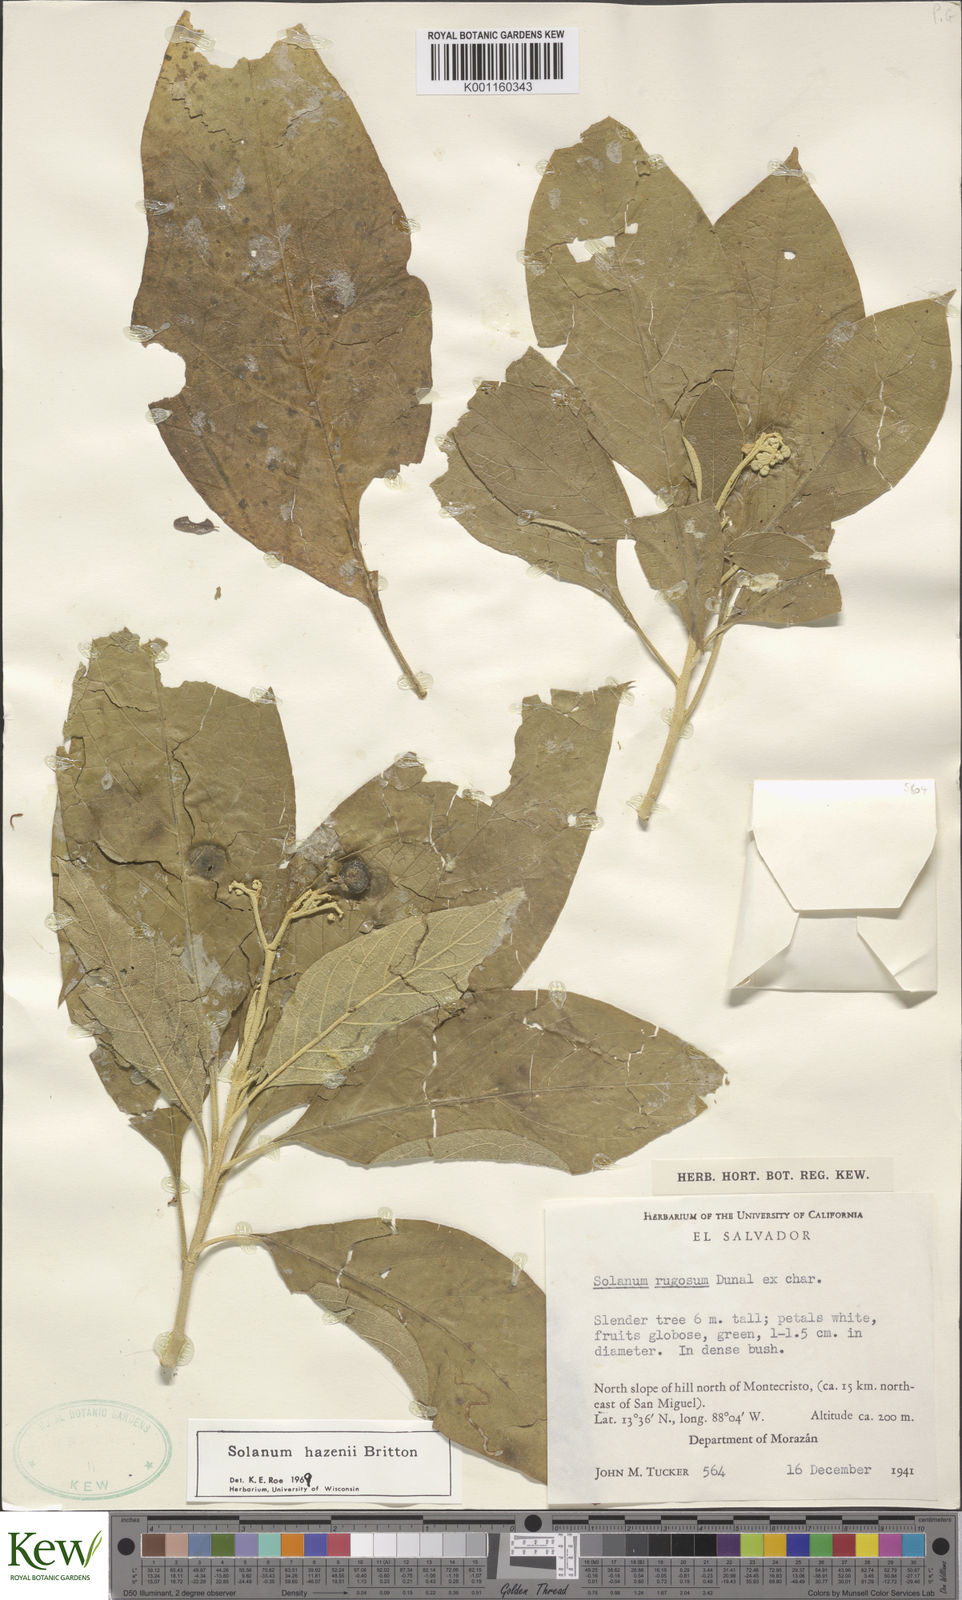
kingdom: Plantae
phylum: Tracheophyta
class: Magnoliopsida
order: Solanales
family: Solanaceae
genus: Solanum
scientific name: Solanum hazenii
